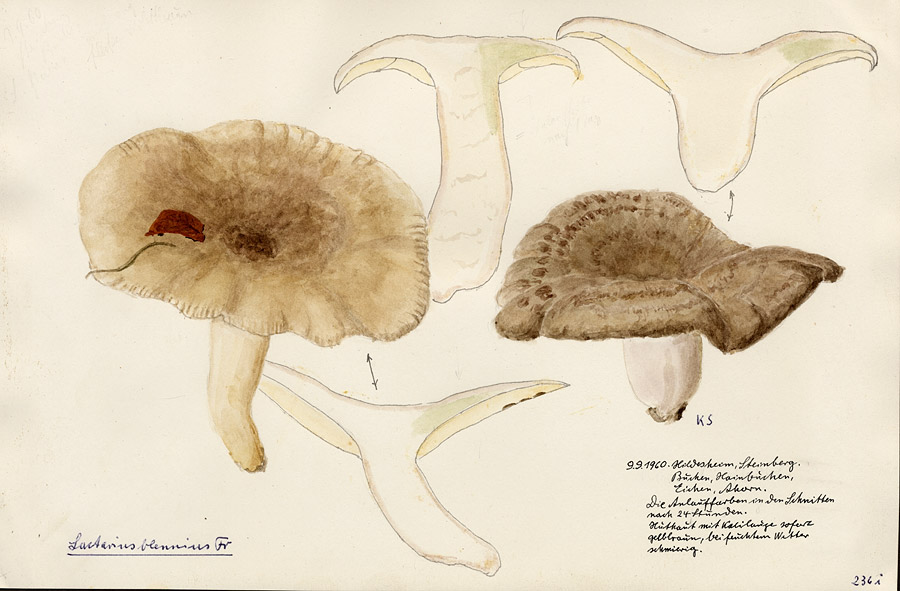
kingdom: Fungi
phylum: Basidiomycota
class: Agaricomycetes
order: Russulales
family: Russulaceae
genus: Lactarius
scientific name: Lactarius blennius
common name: Beech milkcap
